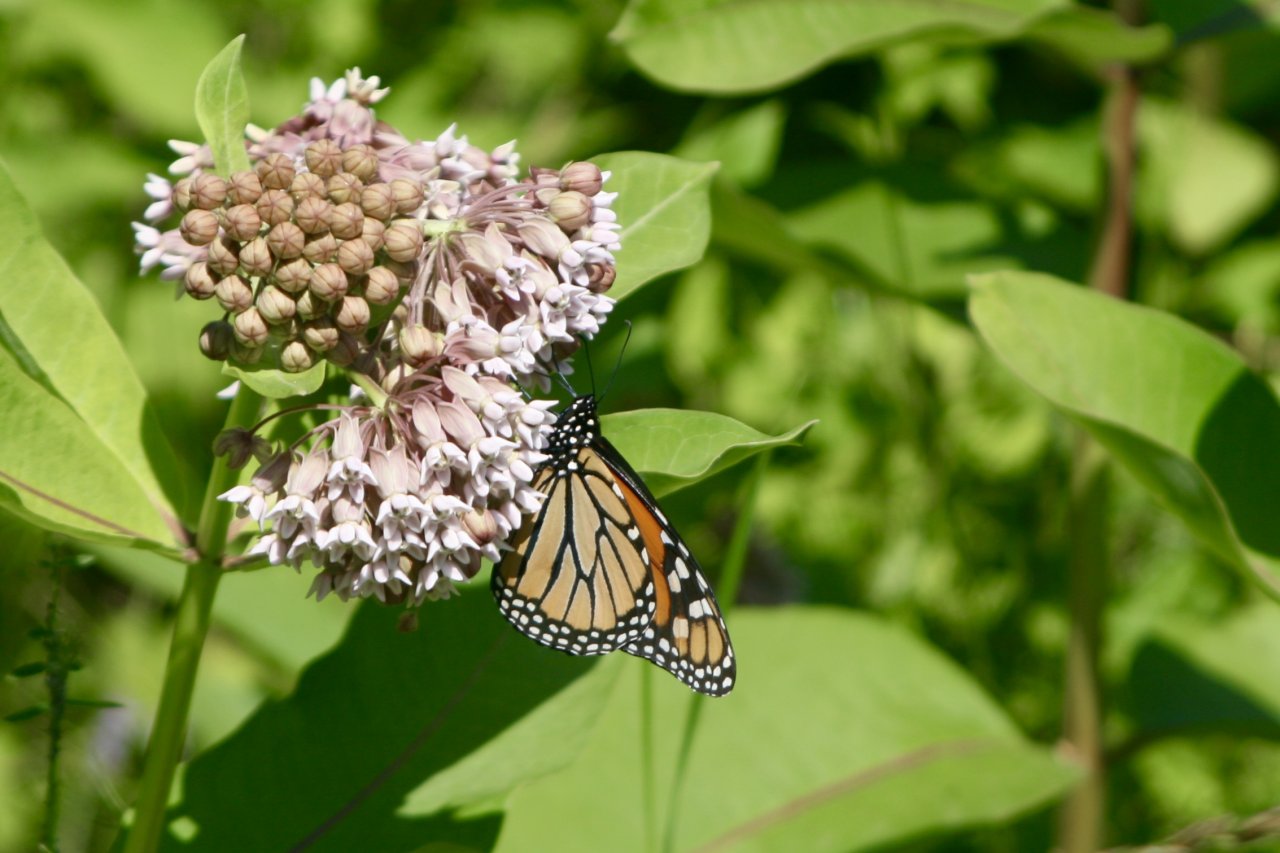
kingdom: Animalia
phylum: Arthropoda
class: Insecta
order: Lepidoptera
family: Nymphalidae
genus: Danaus
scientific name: Danaus plexippus
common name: Monarch
